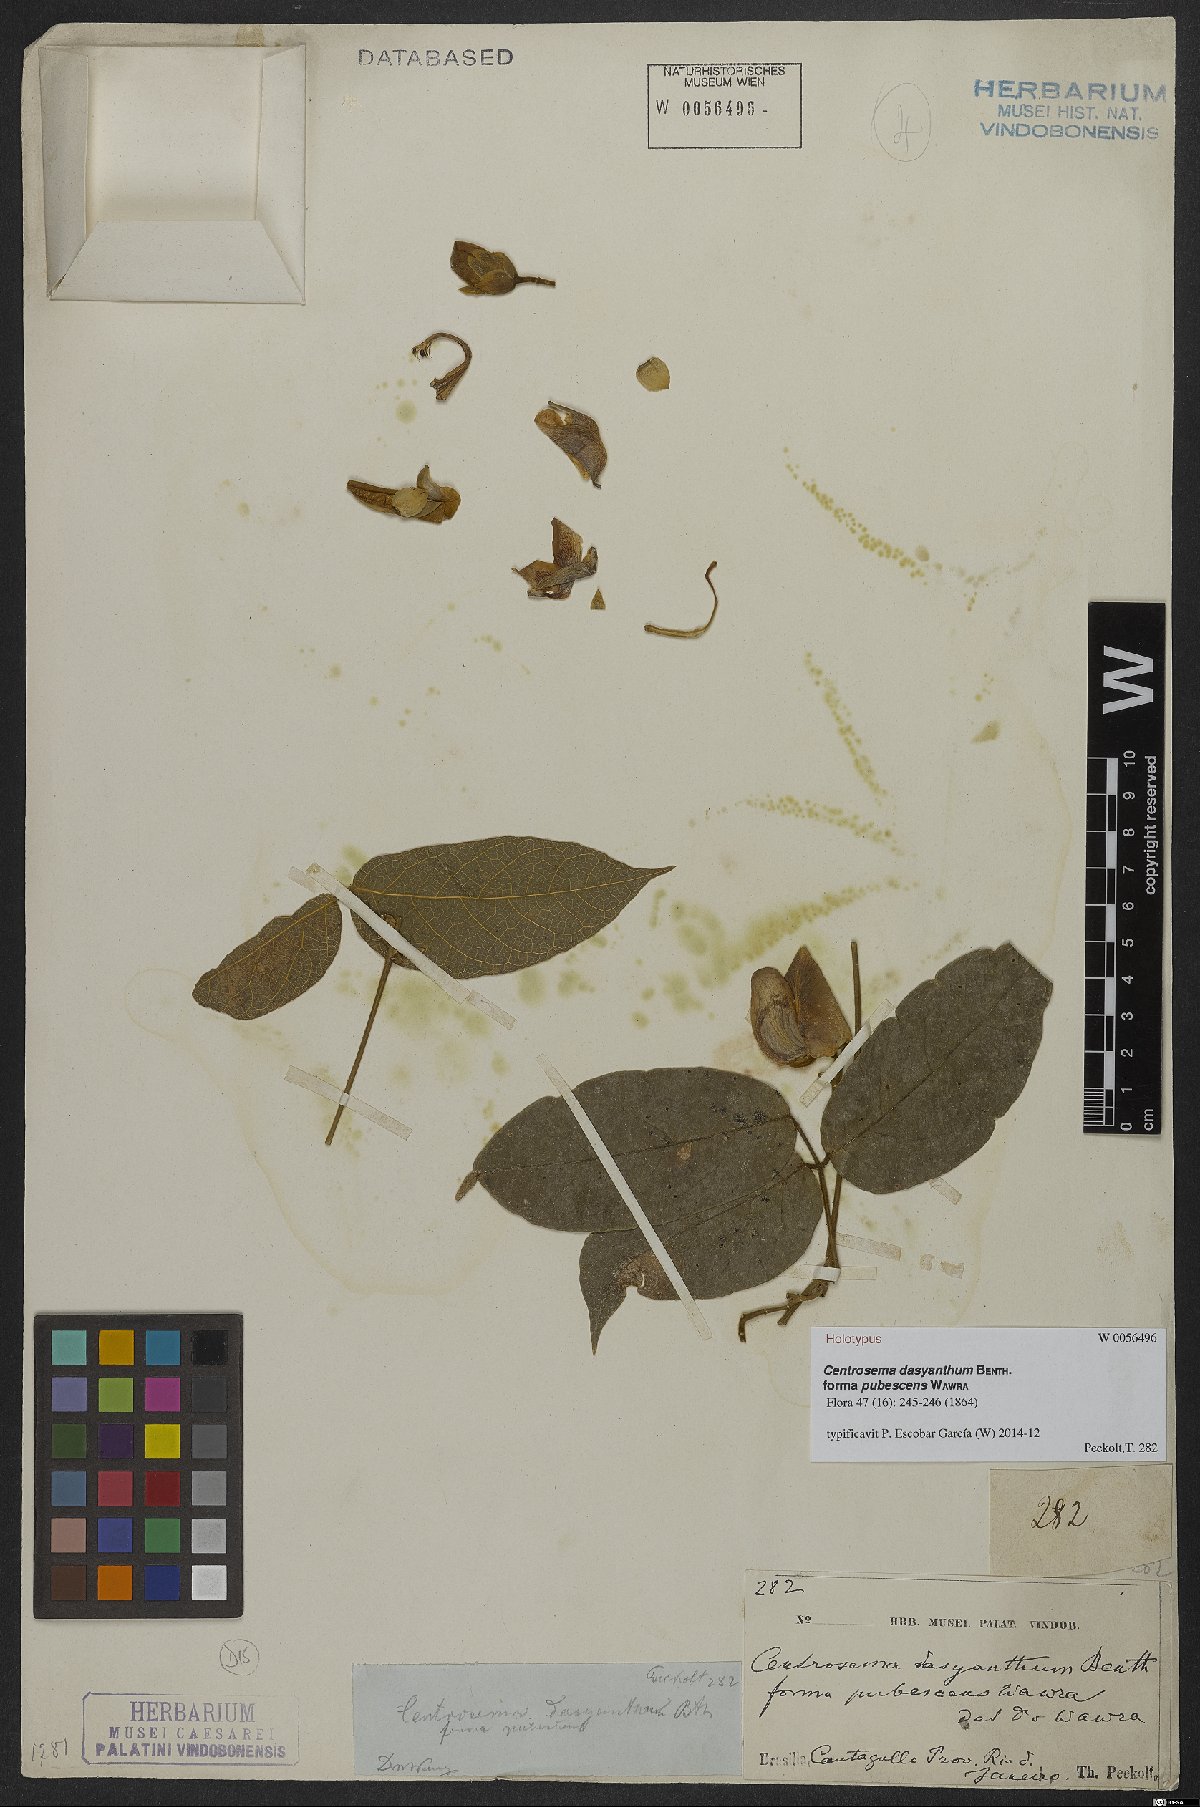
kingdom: Plantae
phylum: Tracheophyta
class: Magnoliopsida
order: Fabales
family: Fabaceae
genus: Centrosema
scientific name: Centrosema dasyanthum
